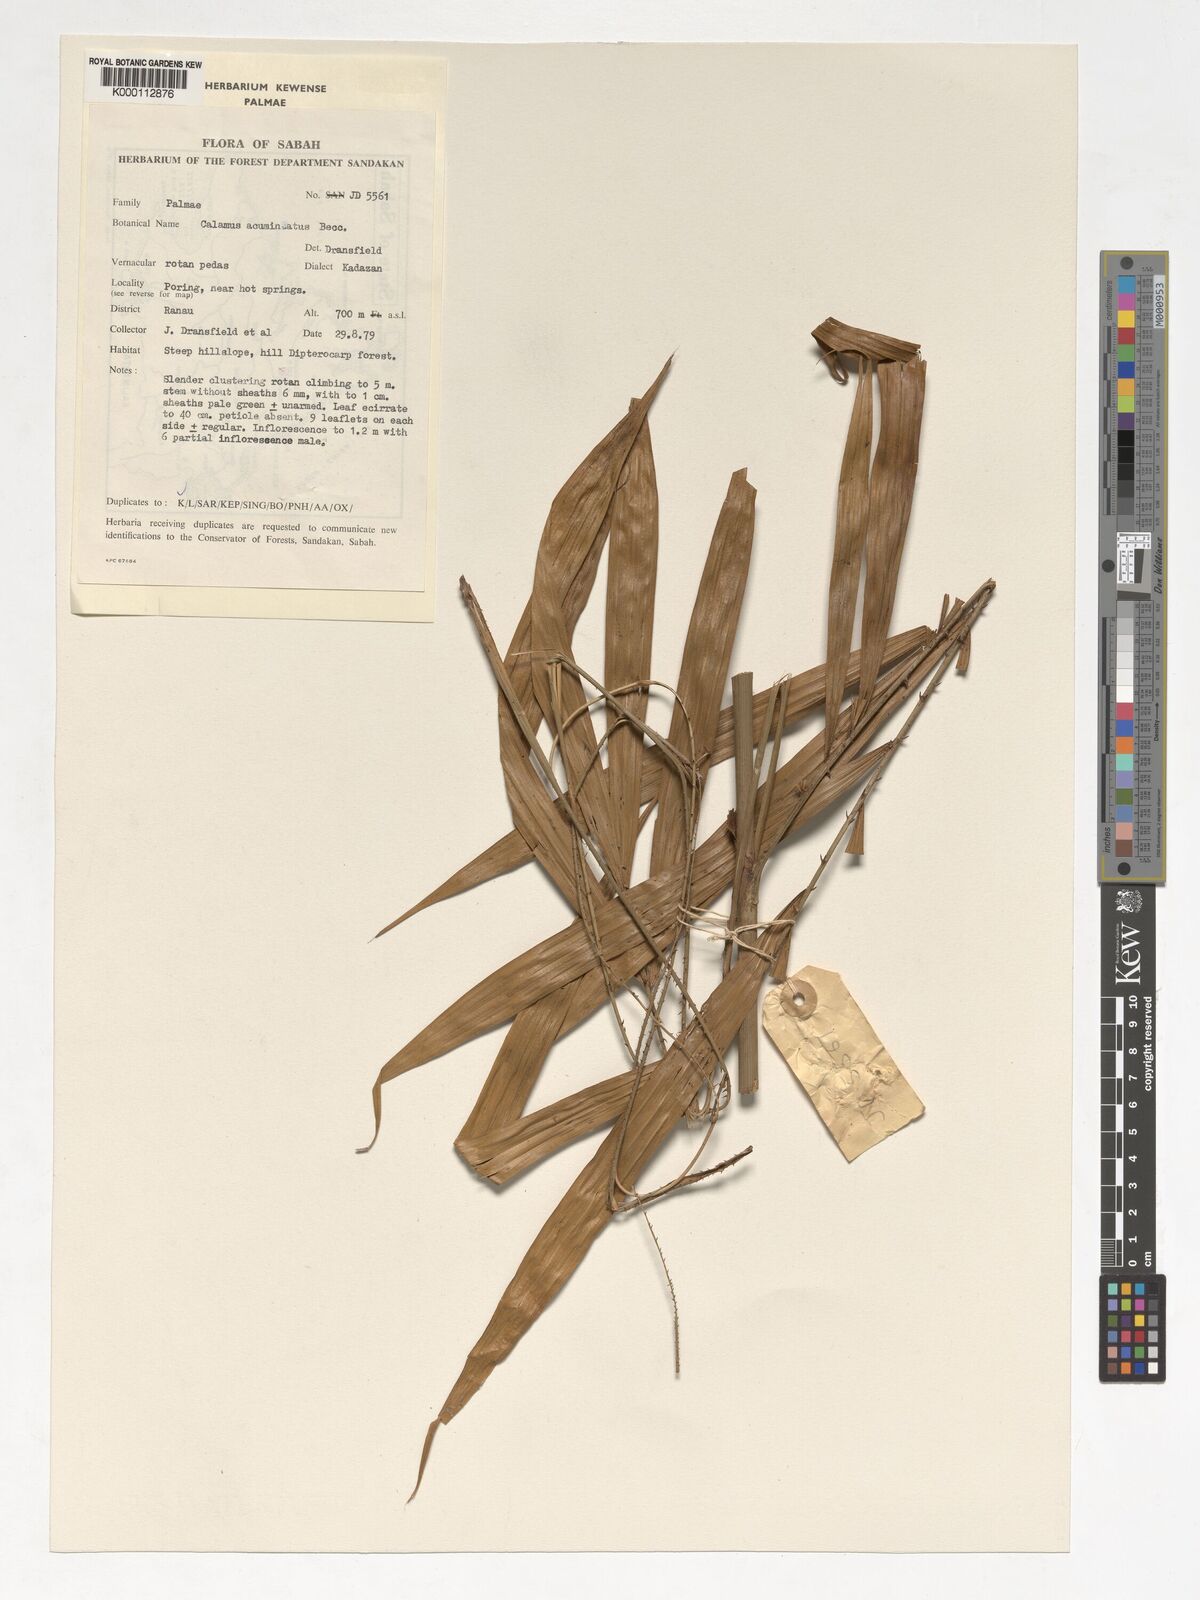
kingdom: Plantae
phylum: Tracheophyta
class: Liliopsida
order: Arecales
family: Arecaceae
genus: Calamus
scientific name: Calamus javensis
